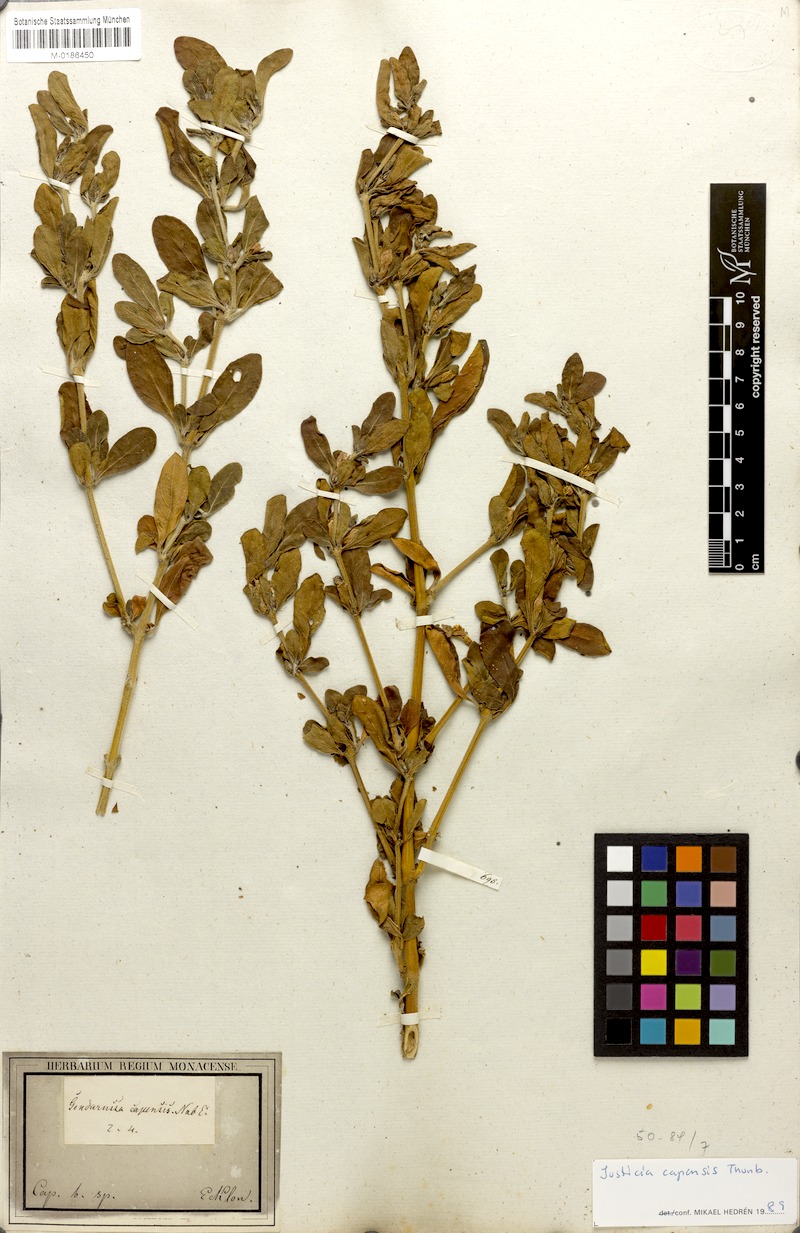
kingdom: Plantae
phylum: Tracheophyta
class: Magnoliopsida
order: Lamiales
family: Acanthaceae
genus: Justicia
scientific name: Justicia capensis
